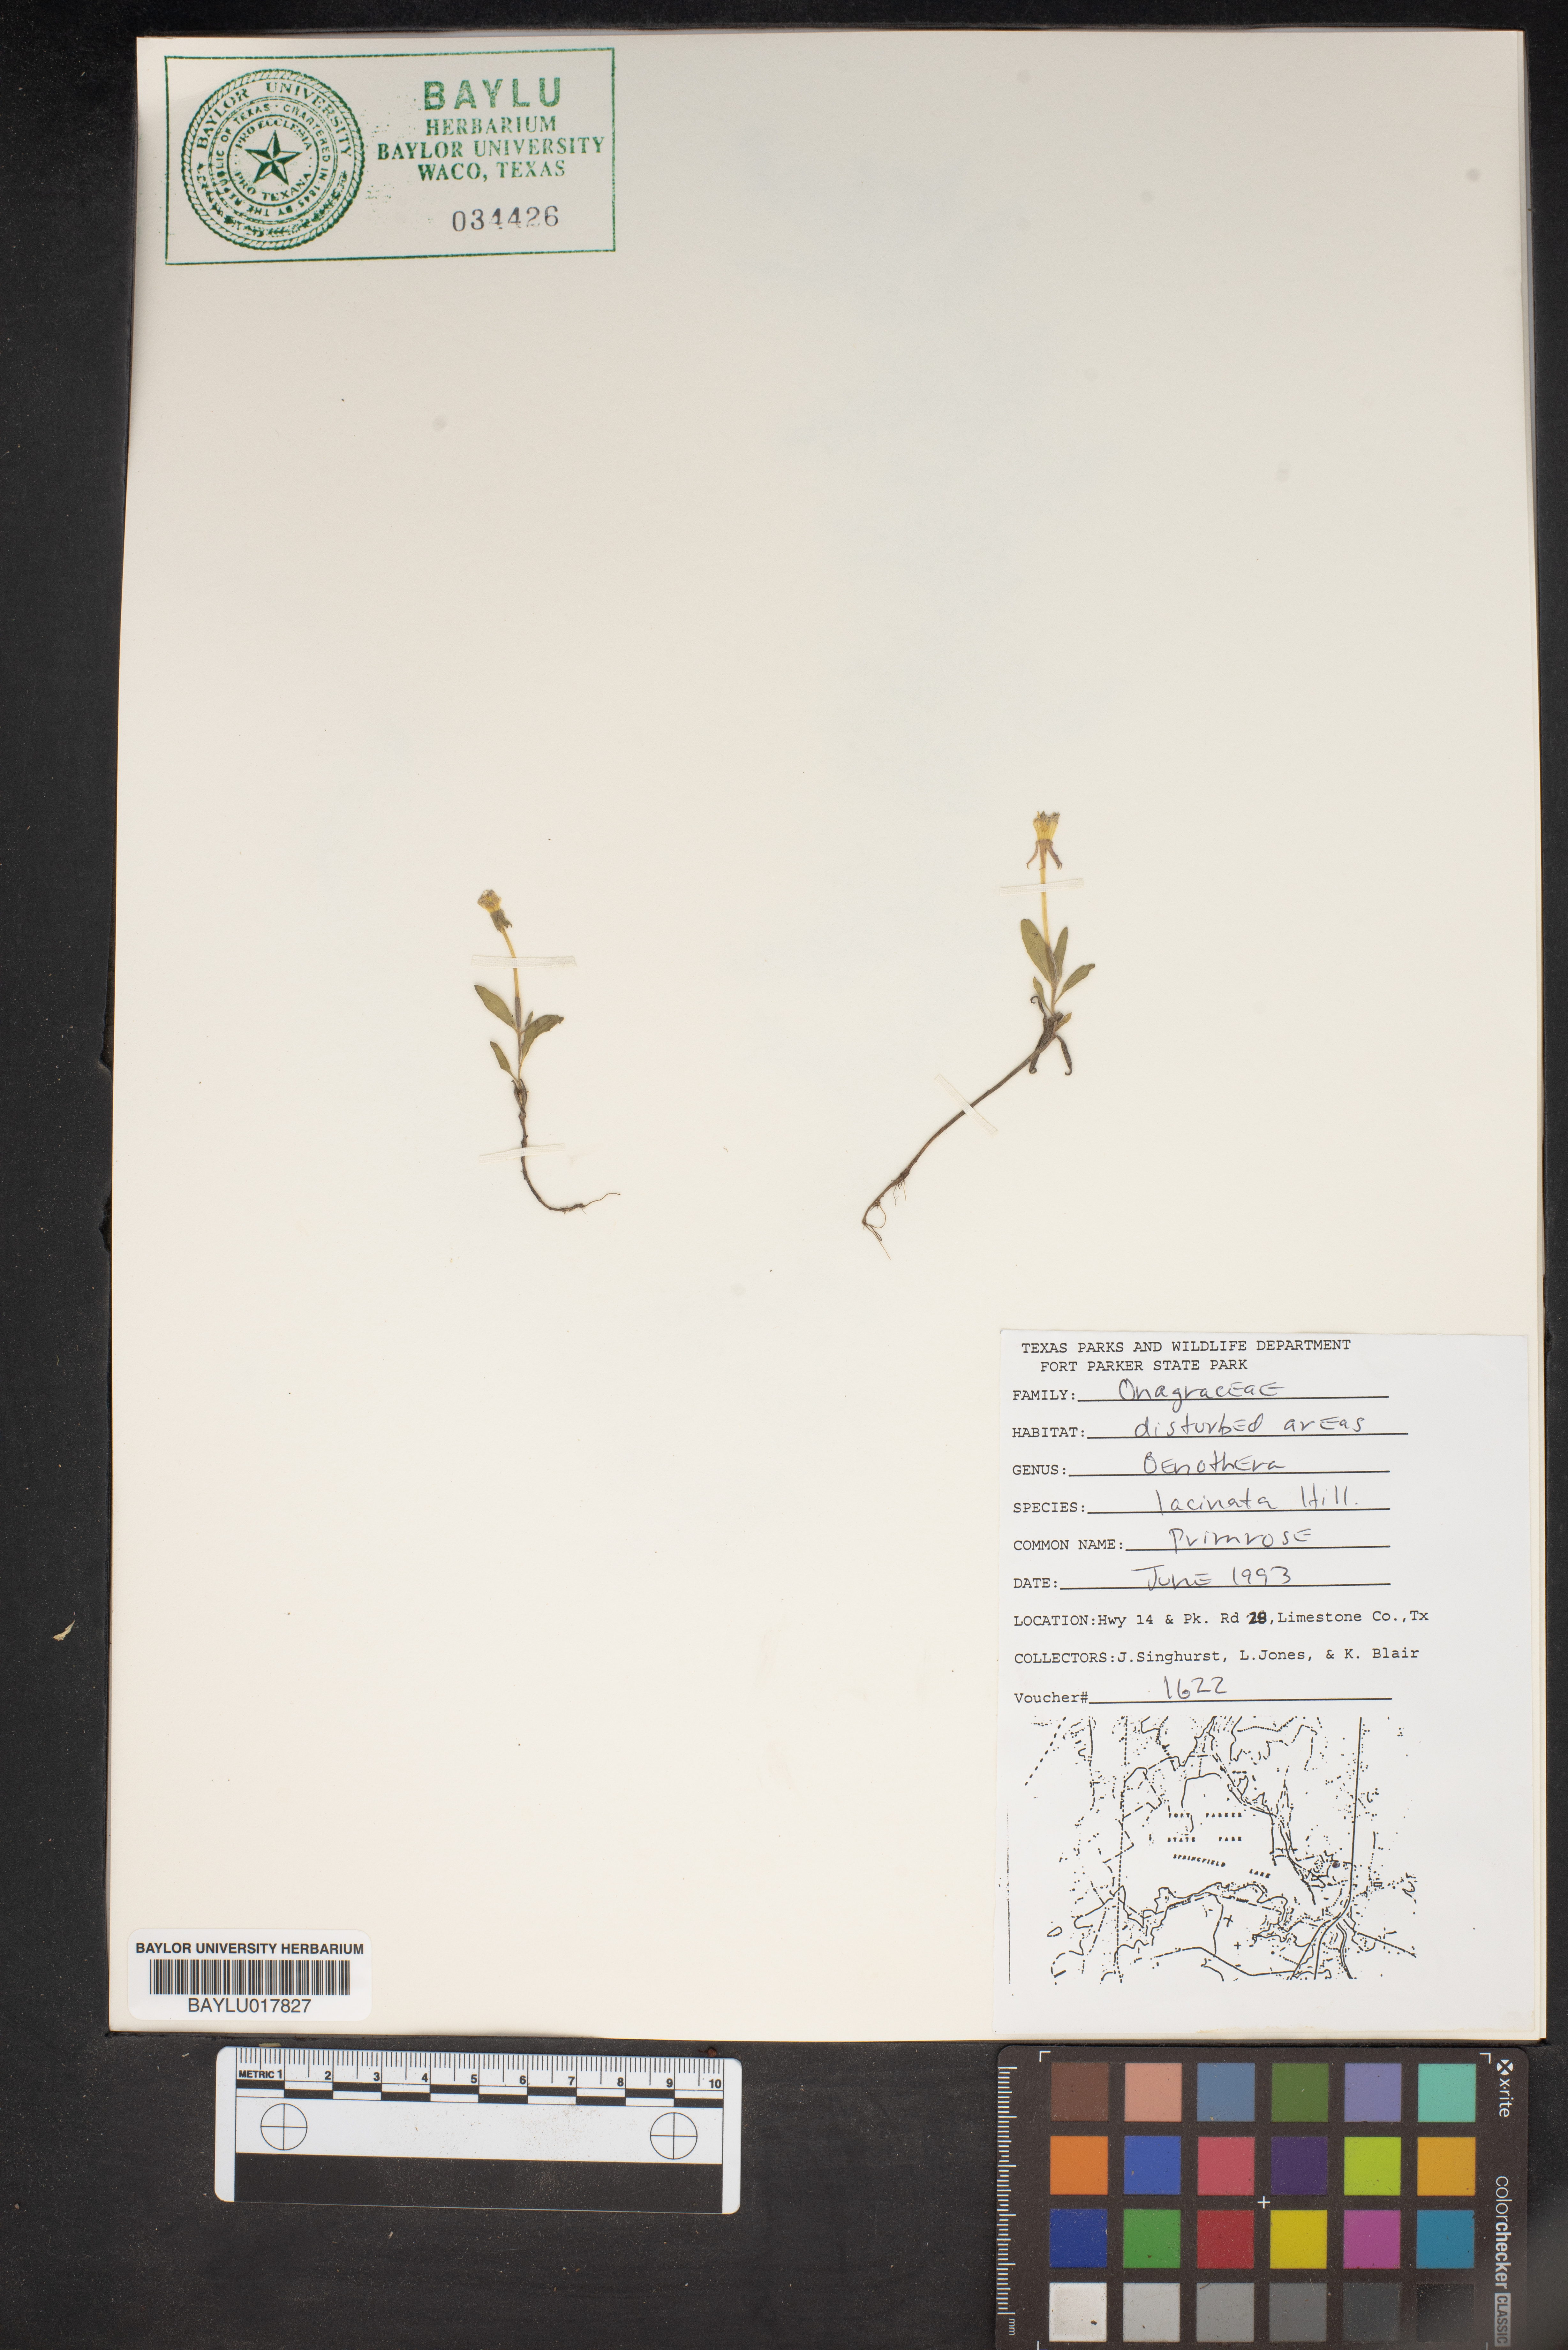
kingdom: Plantae
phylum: Tracheophyta
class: Magnoliopsida
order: Myrtales
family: Onagraceae
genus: Oenothera
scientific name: Oenothera laciniata
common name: Cut-leaved evening-primrose
